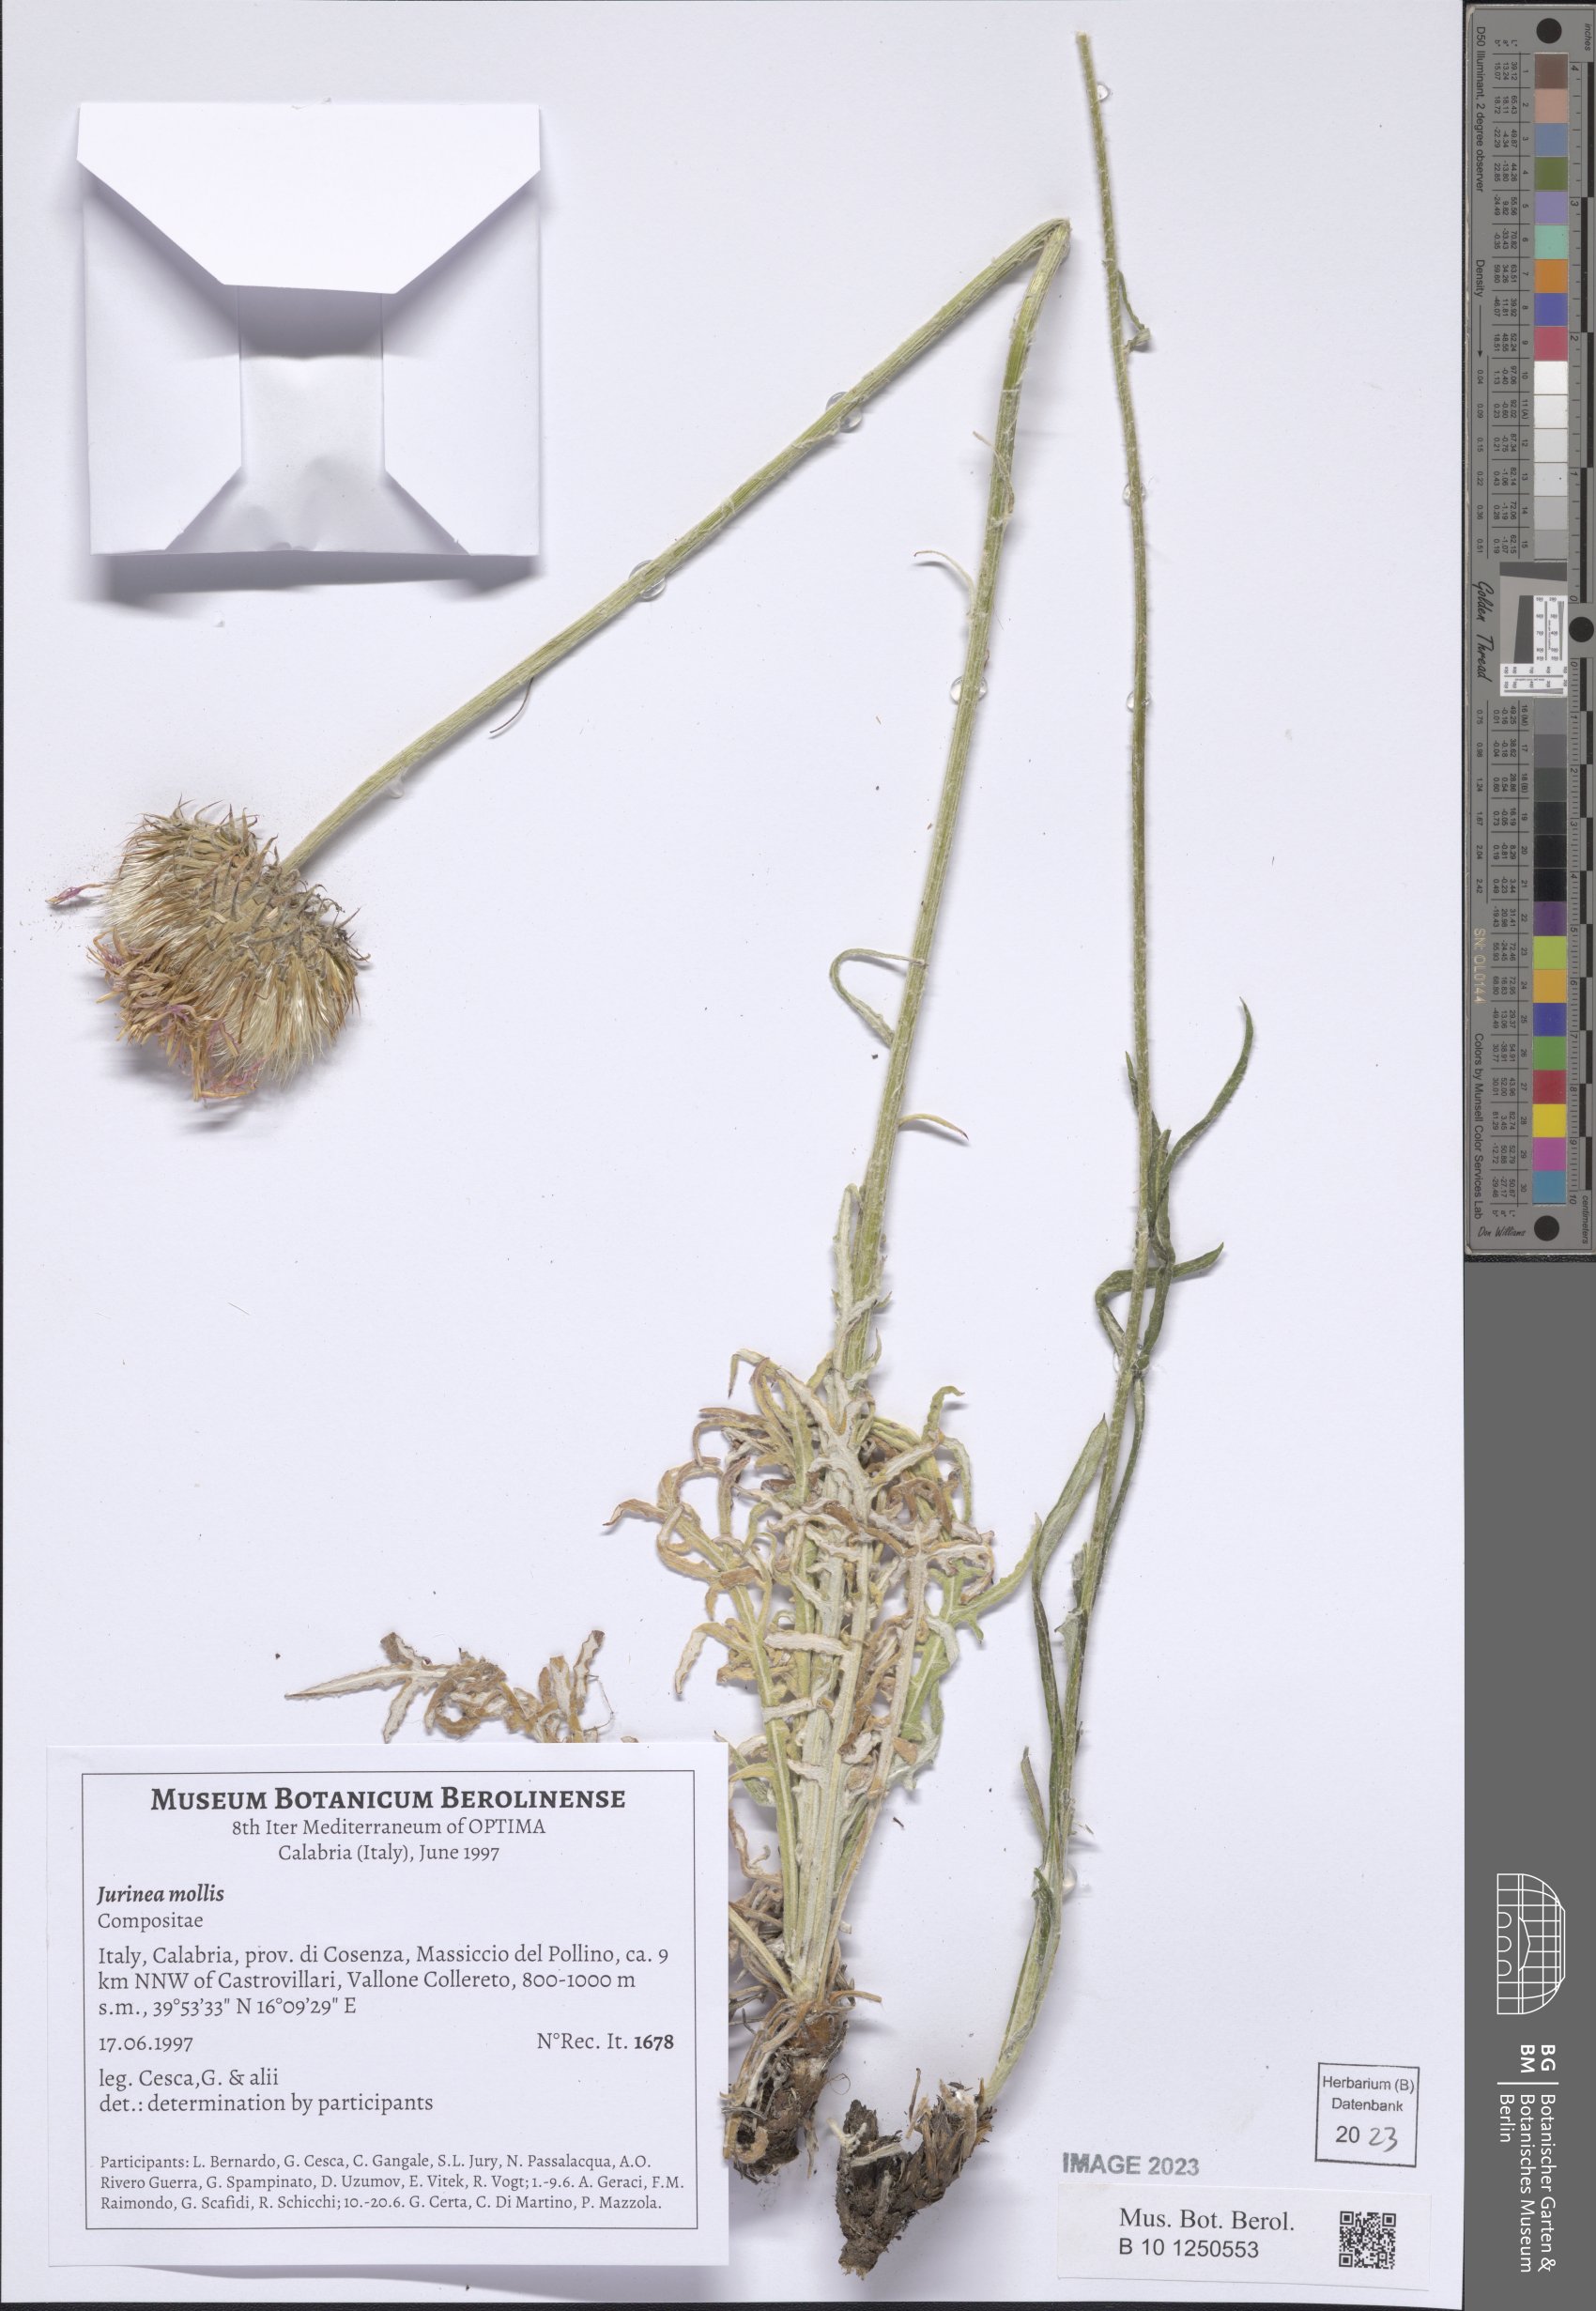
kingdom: Plantae
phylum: Tracheophyta
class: Magnoliopsida
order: Asterales
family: Asteraceae
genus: Jurinea
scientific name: Jurinea mollis
